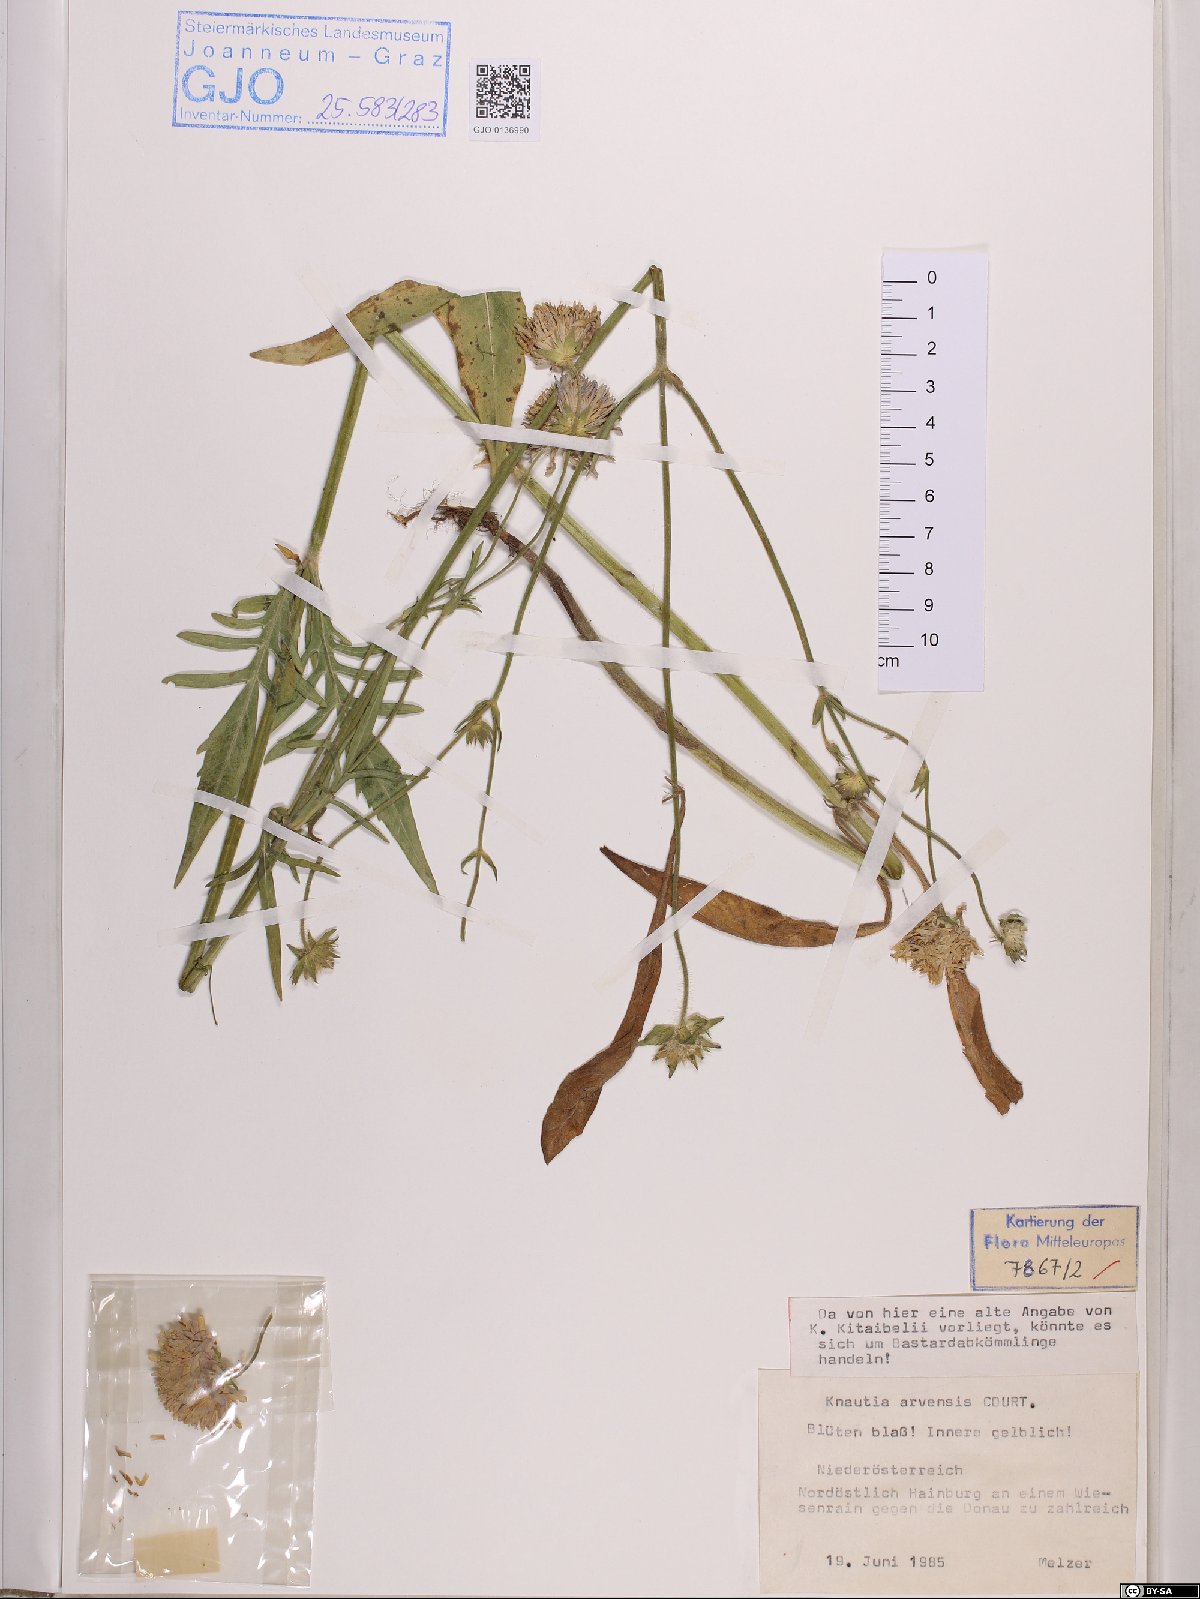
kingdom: Plantae
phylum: Tracheophyta
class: Magnoliopsida
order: Dipsacales
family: Caprifoliaceae
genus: Knautia
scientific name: Knautia arvensis
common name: Field scabiosa
